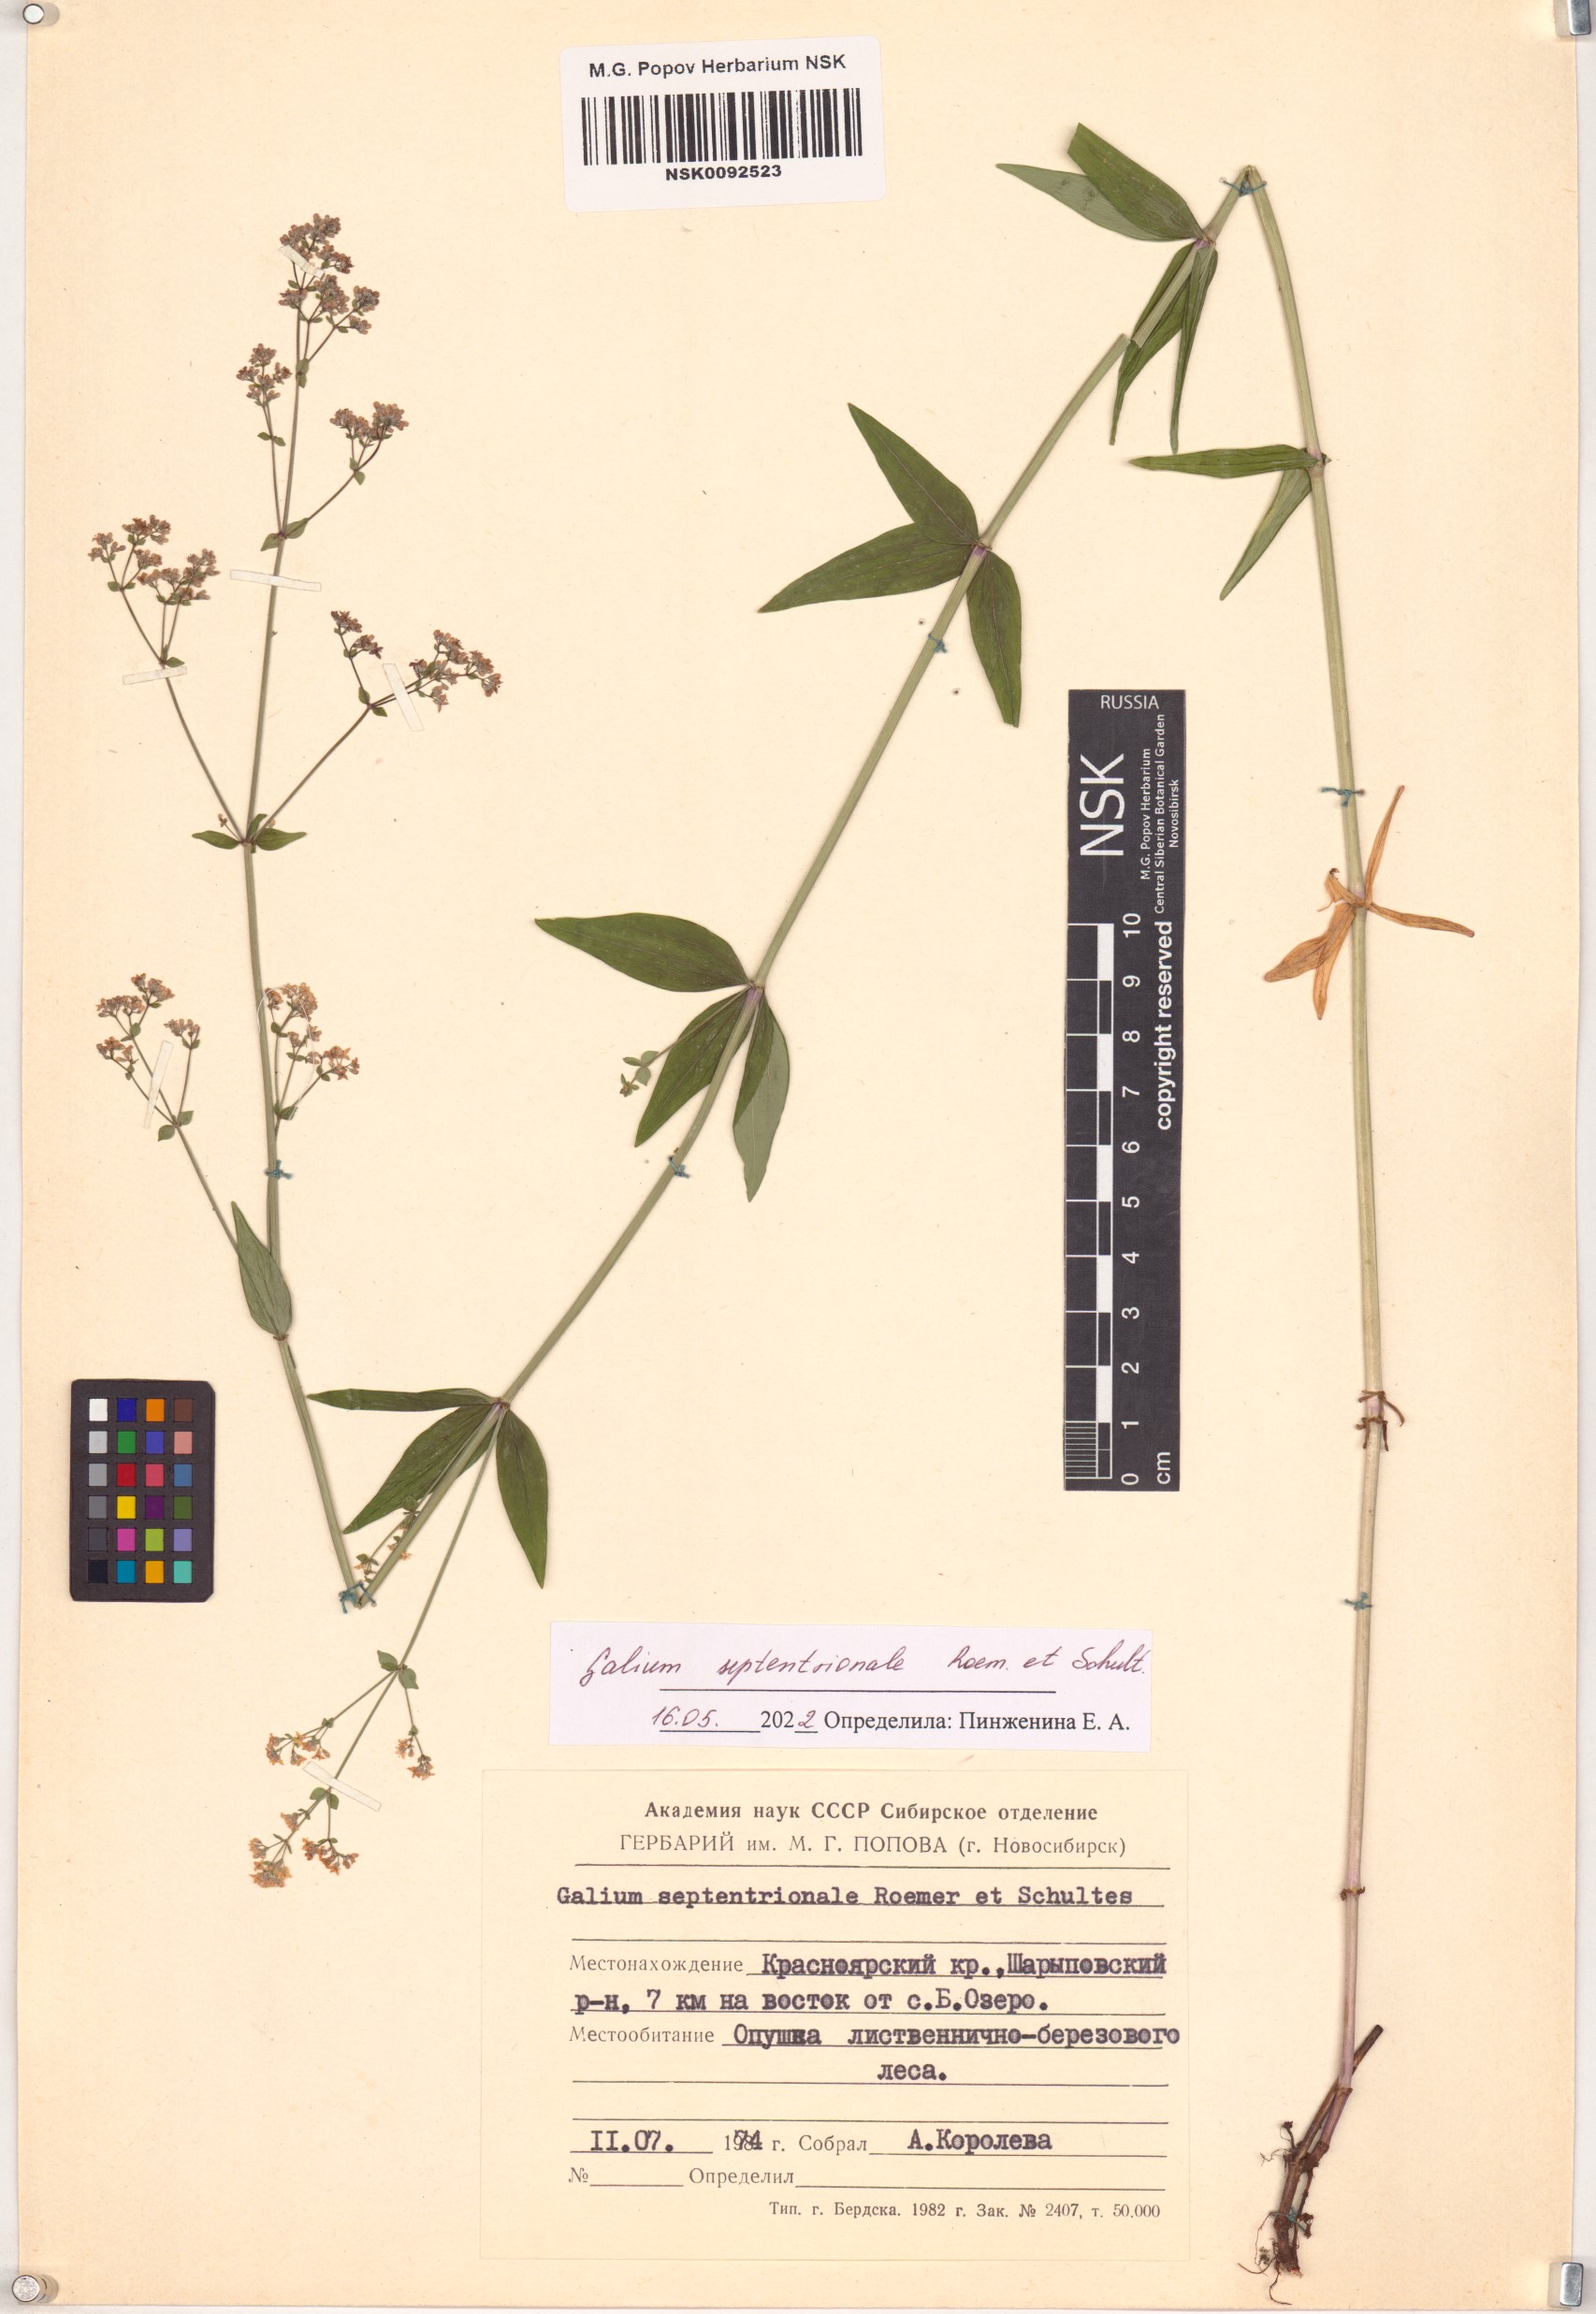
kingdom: Plantae
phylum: Tracheophyta
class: Magnoliopsida
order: Gentianales
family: Rubiaceae
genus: Galium
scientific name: Galium boreale
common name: Northern bedstraw
